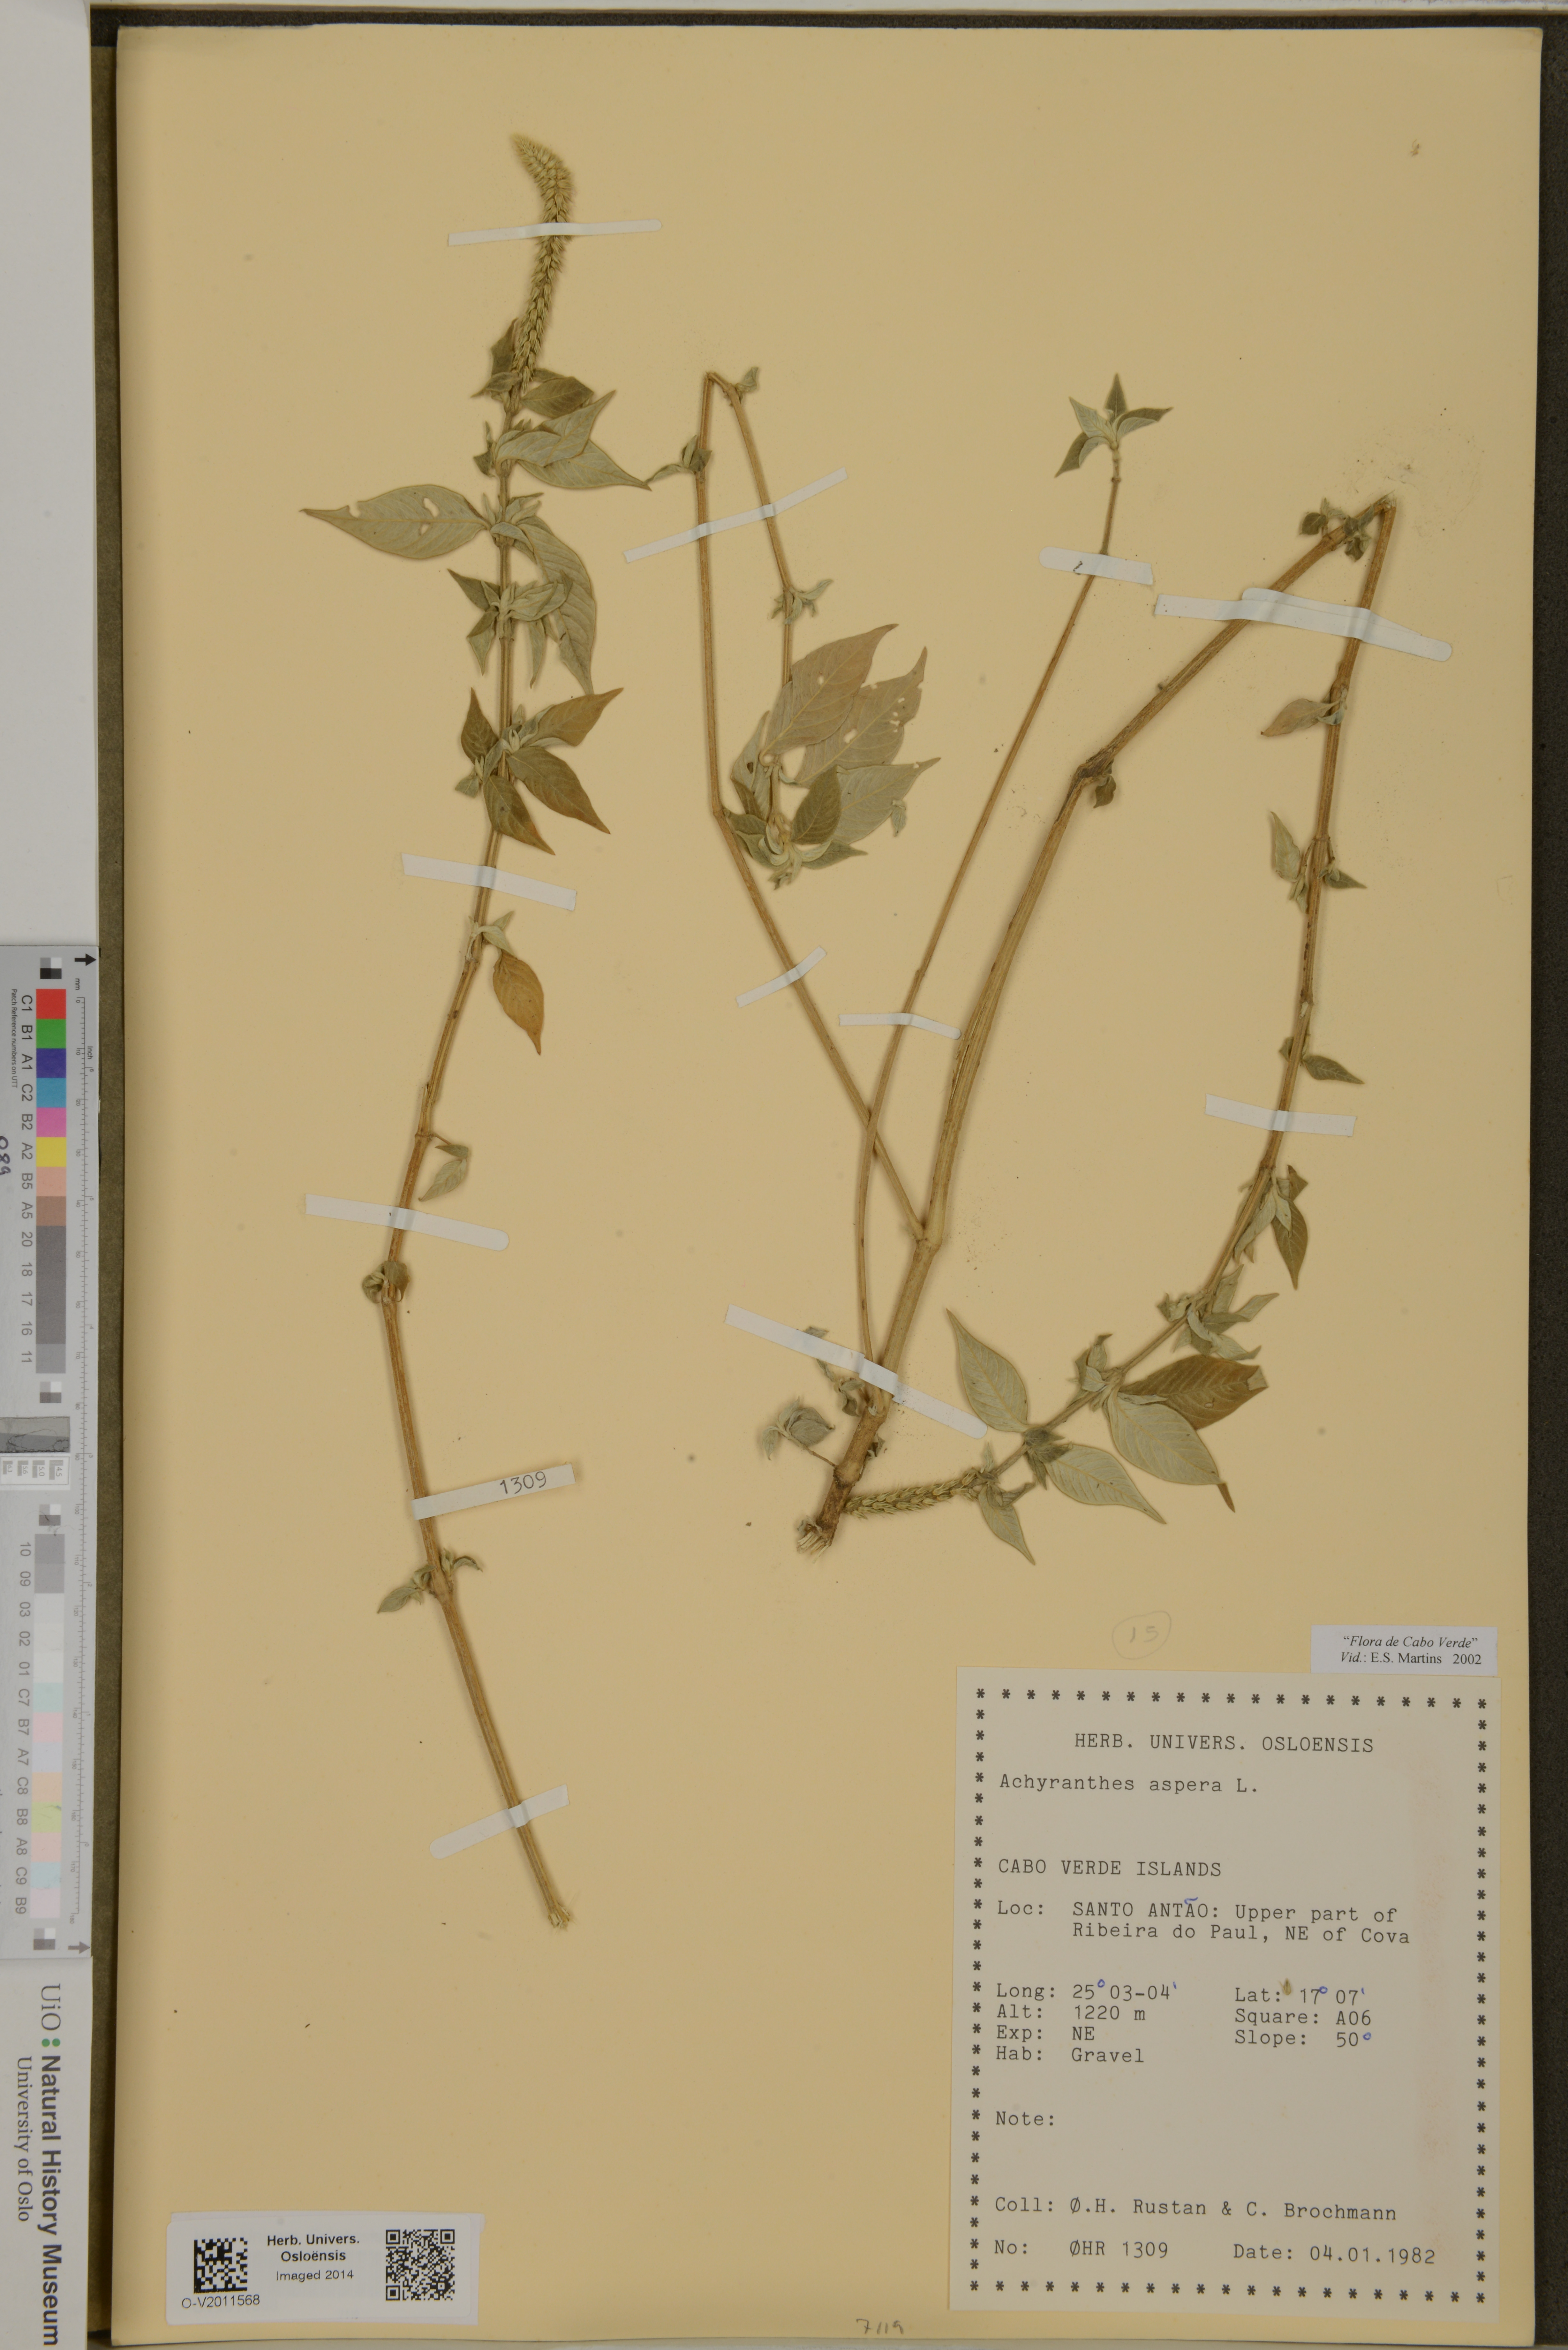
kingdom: Plantae
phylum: Tracheophyta
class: Magnoliopsida
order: Caryophyllales
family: Amaranthaceae
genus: Achyranthes
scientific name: Achyranthes aspera
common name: Devil's horsewhip
